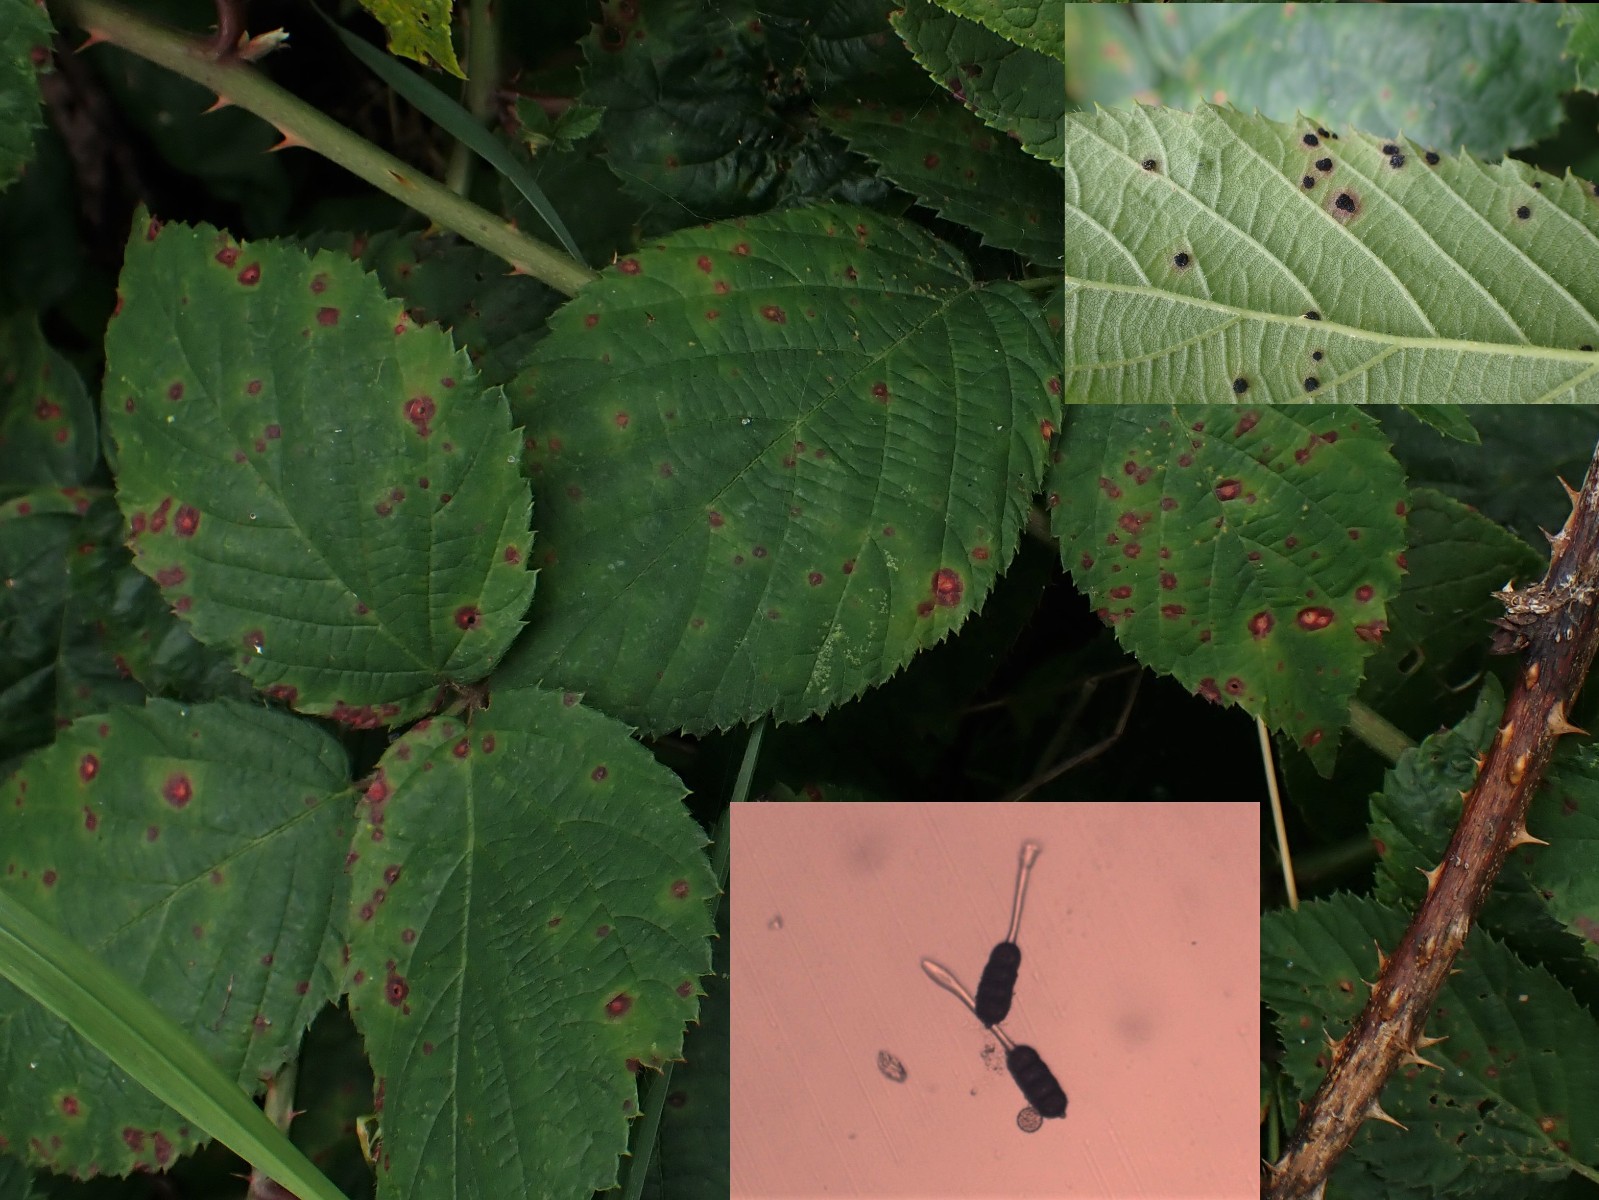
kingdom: Fungi
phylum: Basidiomycota
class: Pucciniomycetes
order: Pucciniales
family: Phragmidiaceae
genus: Phragmidium
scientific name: Phragmidium violaceum
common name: violet flercellerust
